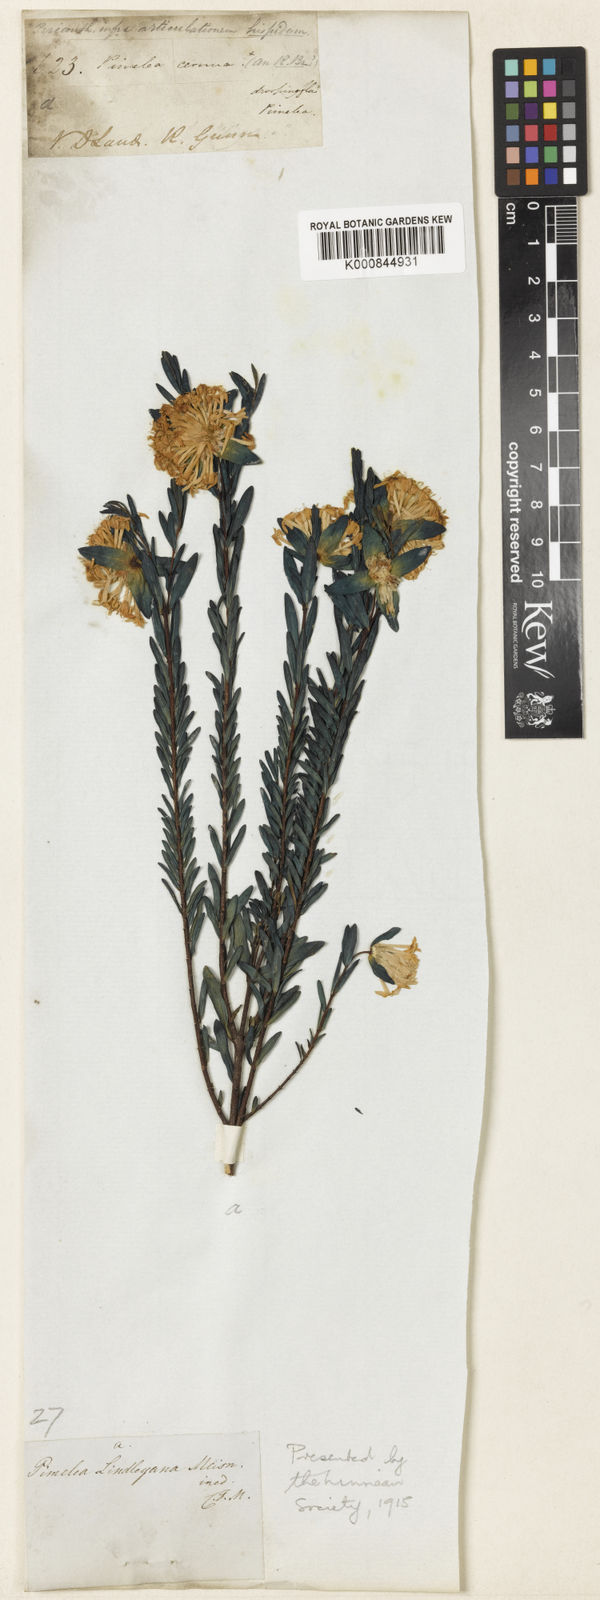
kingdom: Plantae
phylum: Tracheophyta
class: Magnoliopsida
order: Malvales
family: Thymelaeaceae
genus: Pimelea
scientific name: Pimelea linifolia
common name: Queen-of-the-bush
